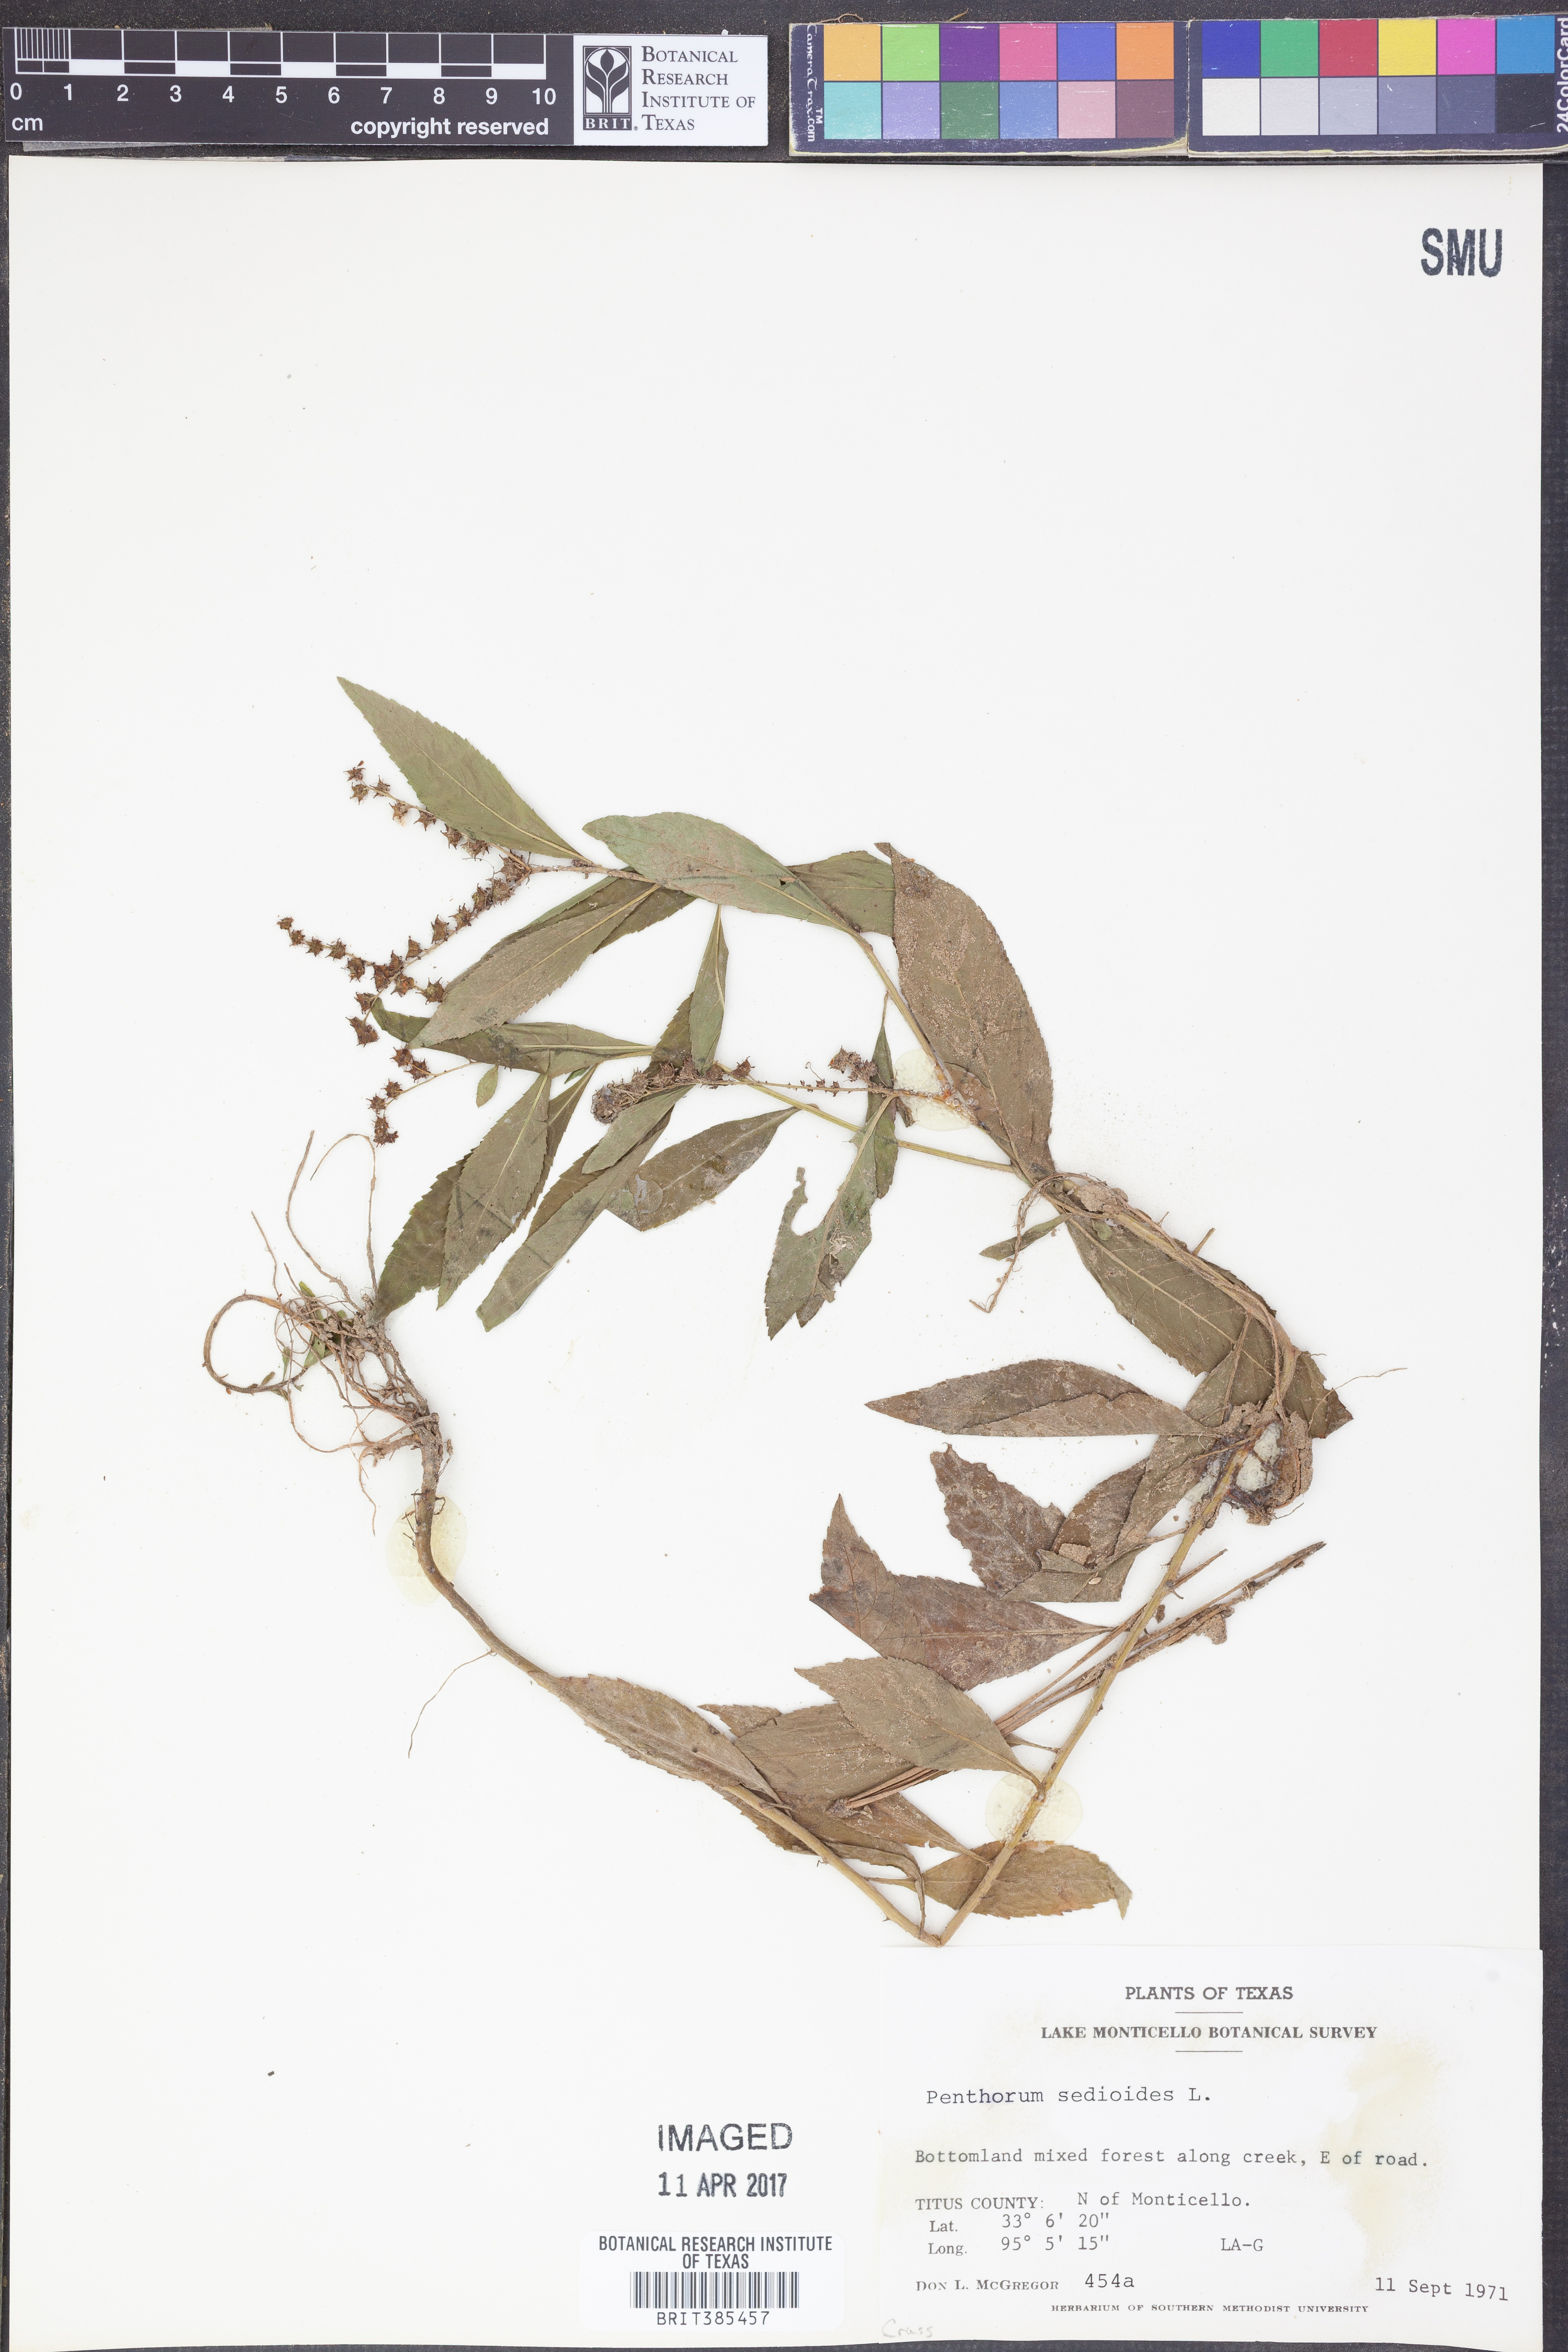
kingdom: Plantae
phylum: Tracheophyta
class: Magnoliopsida
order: Saxifragales
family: Penthoraceae
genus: Penthorum
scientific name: Penthorum sedoides
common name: Ditch stonecrop
